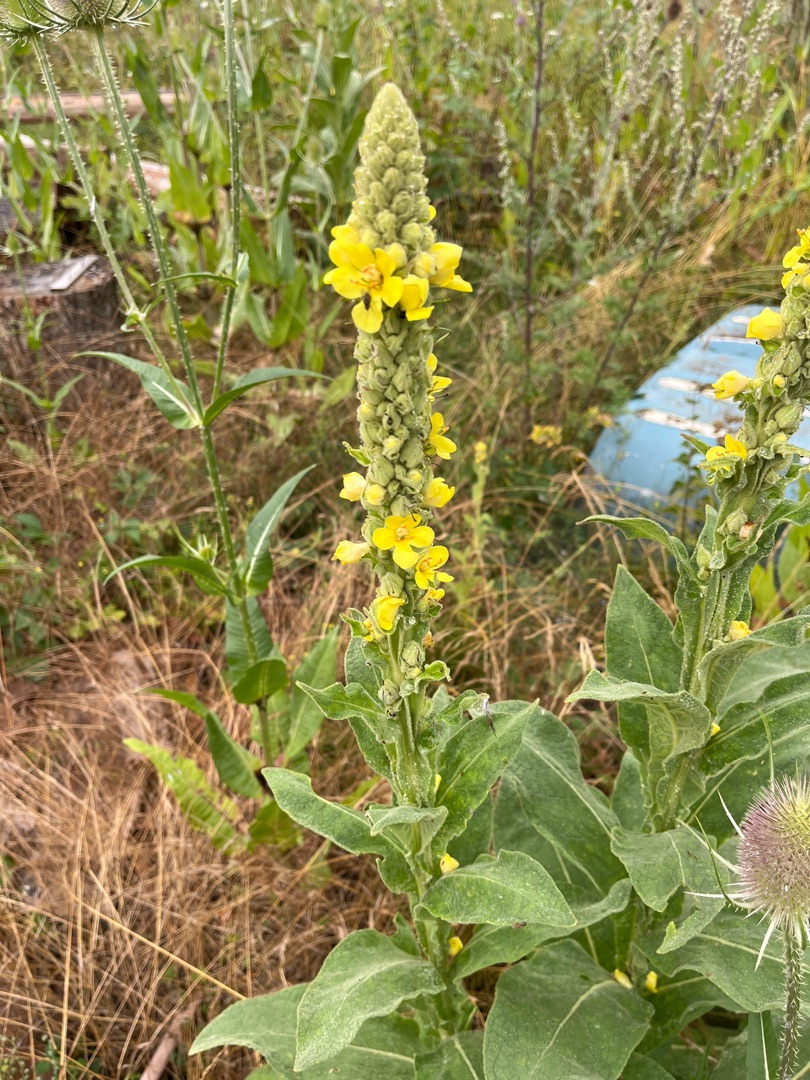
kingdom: Plantae
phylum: Tracheophyta
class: Magnoliopsida
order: Lamiales
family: Scrophulariaceae
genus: Verbascum
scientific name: Verbascum thapsus
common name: Filtbladet kongelys
